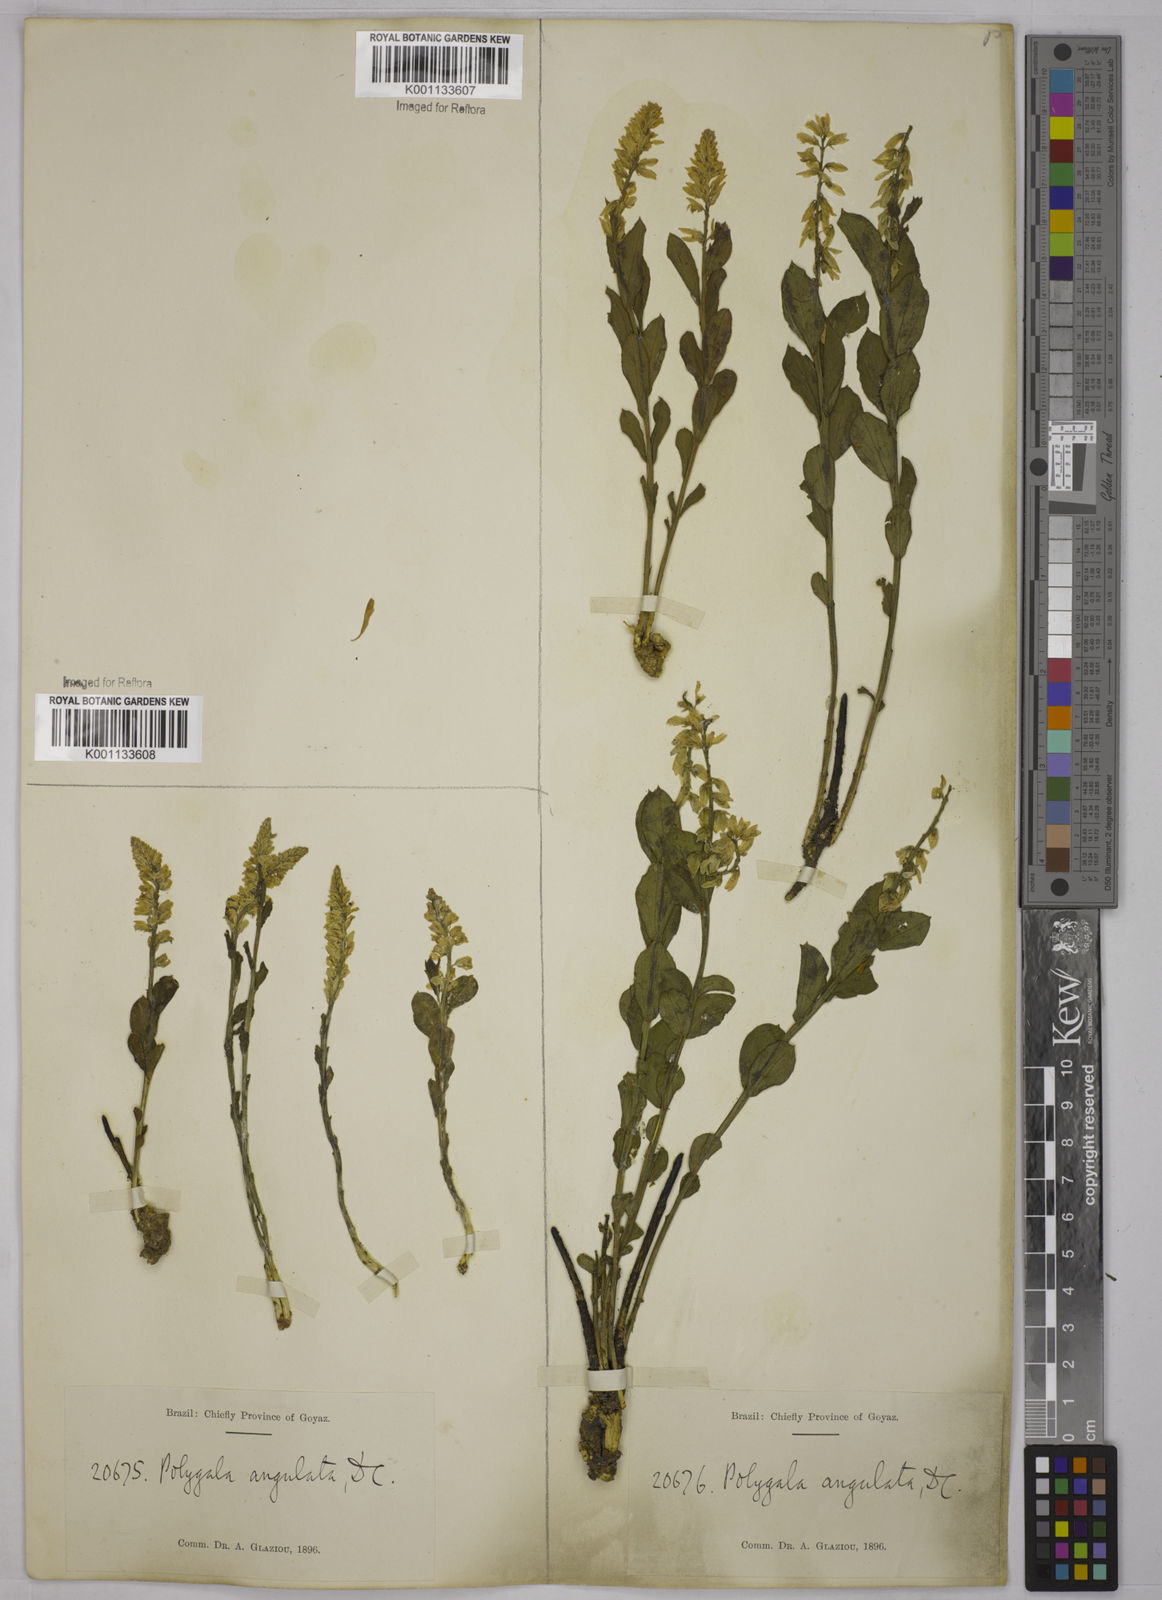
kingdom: Plantae
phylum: Tracheophyta
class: Magnoliopsida
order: Fabales
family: Polygalaceae
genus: Polygala
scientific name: Polygala poaya
